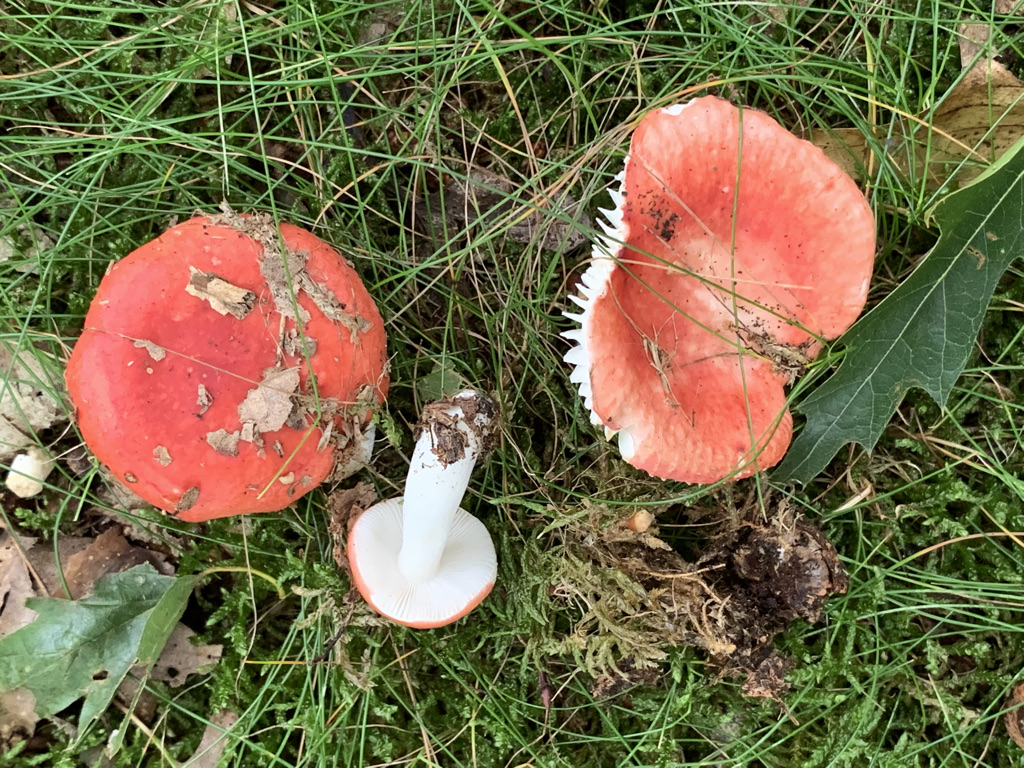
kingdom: Fungi
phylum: Basidiomycota
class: Agaricomycetes
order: Russulales
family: Russulaceae
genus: Russula
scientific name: Russula silvestris
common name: mellemstor gift-skørhat
